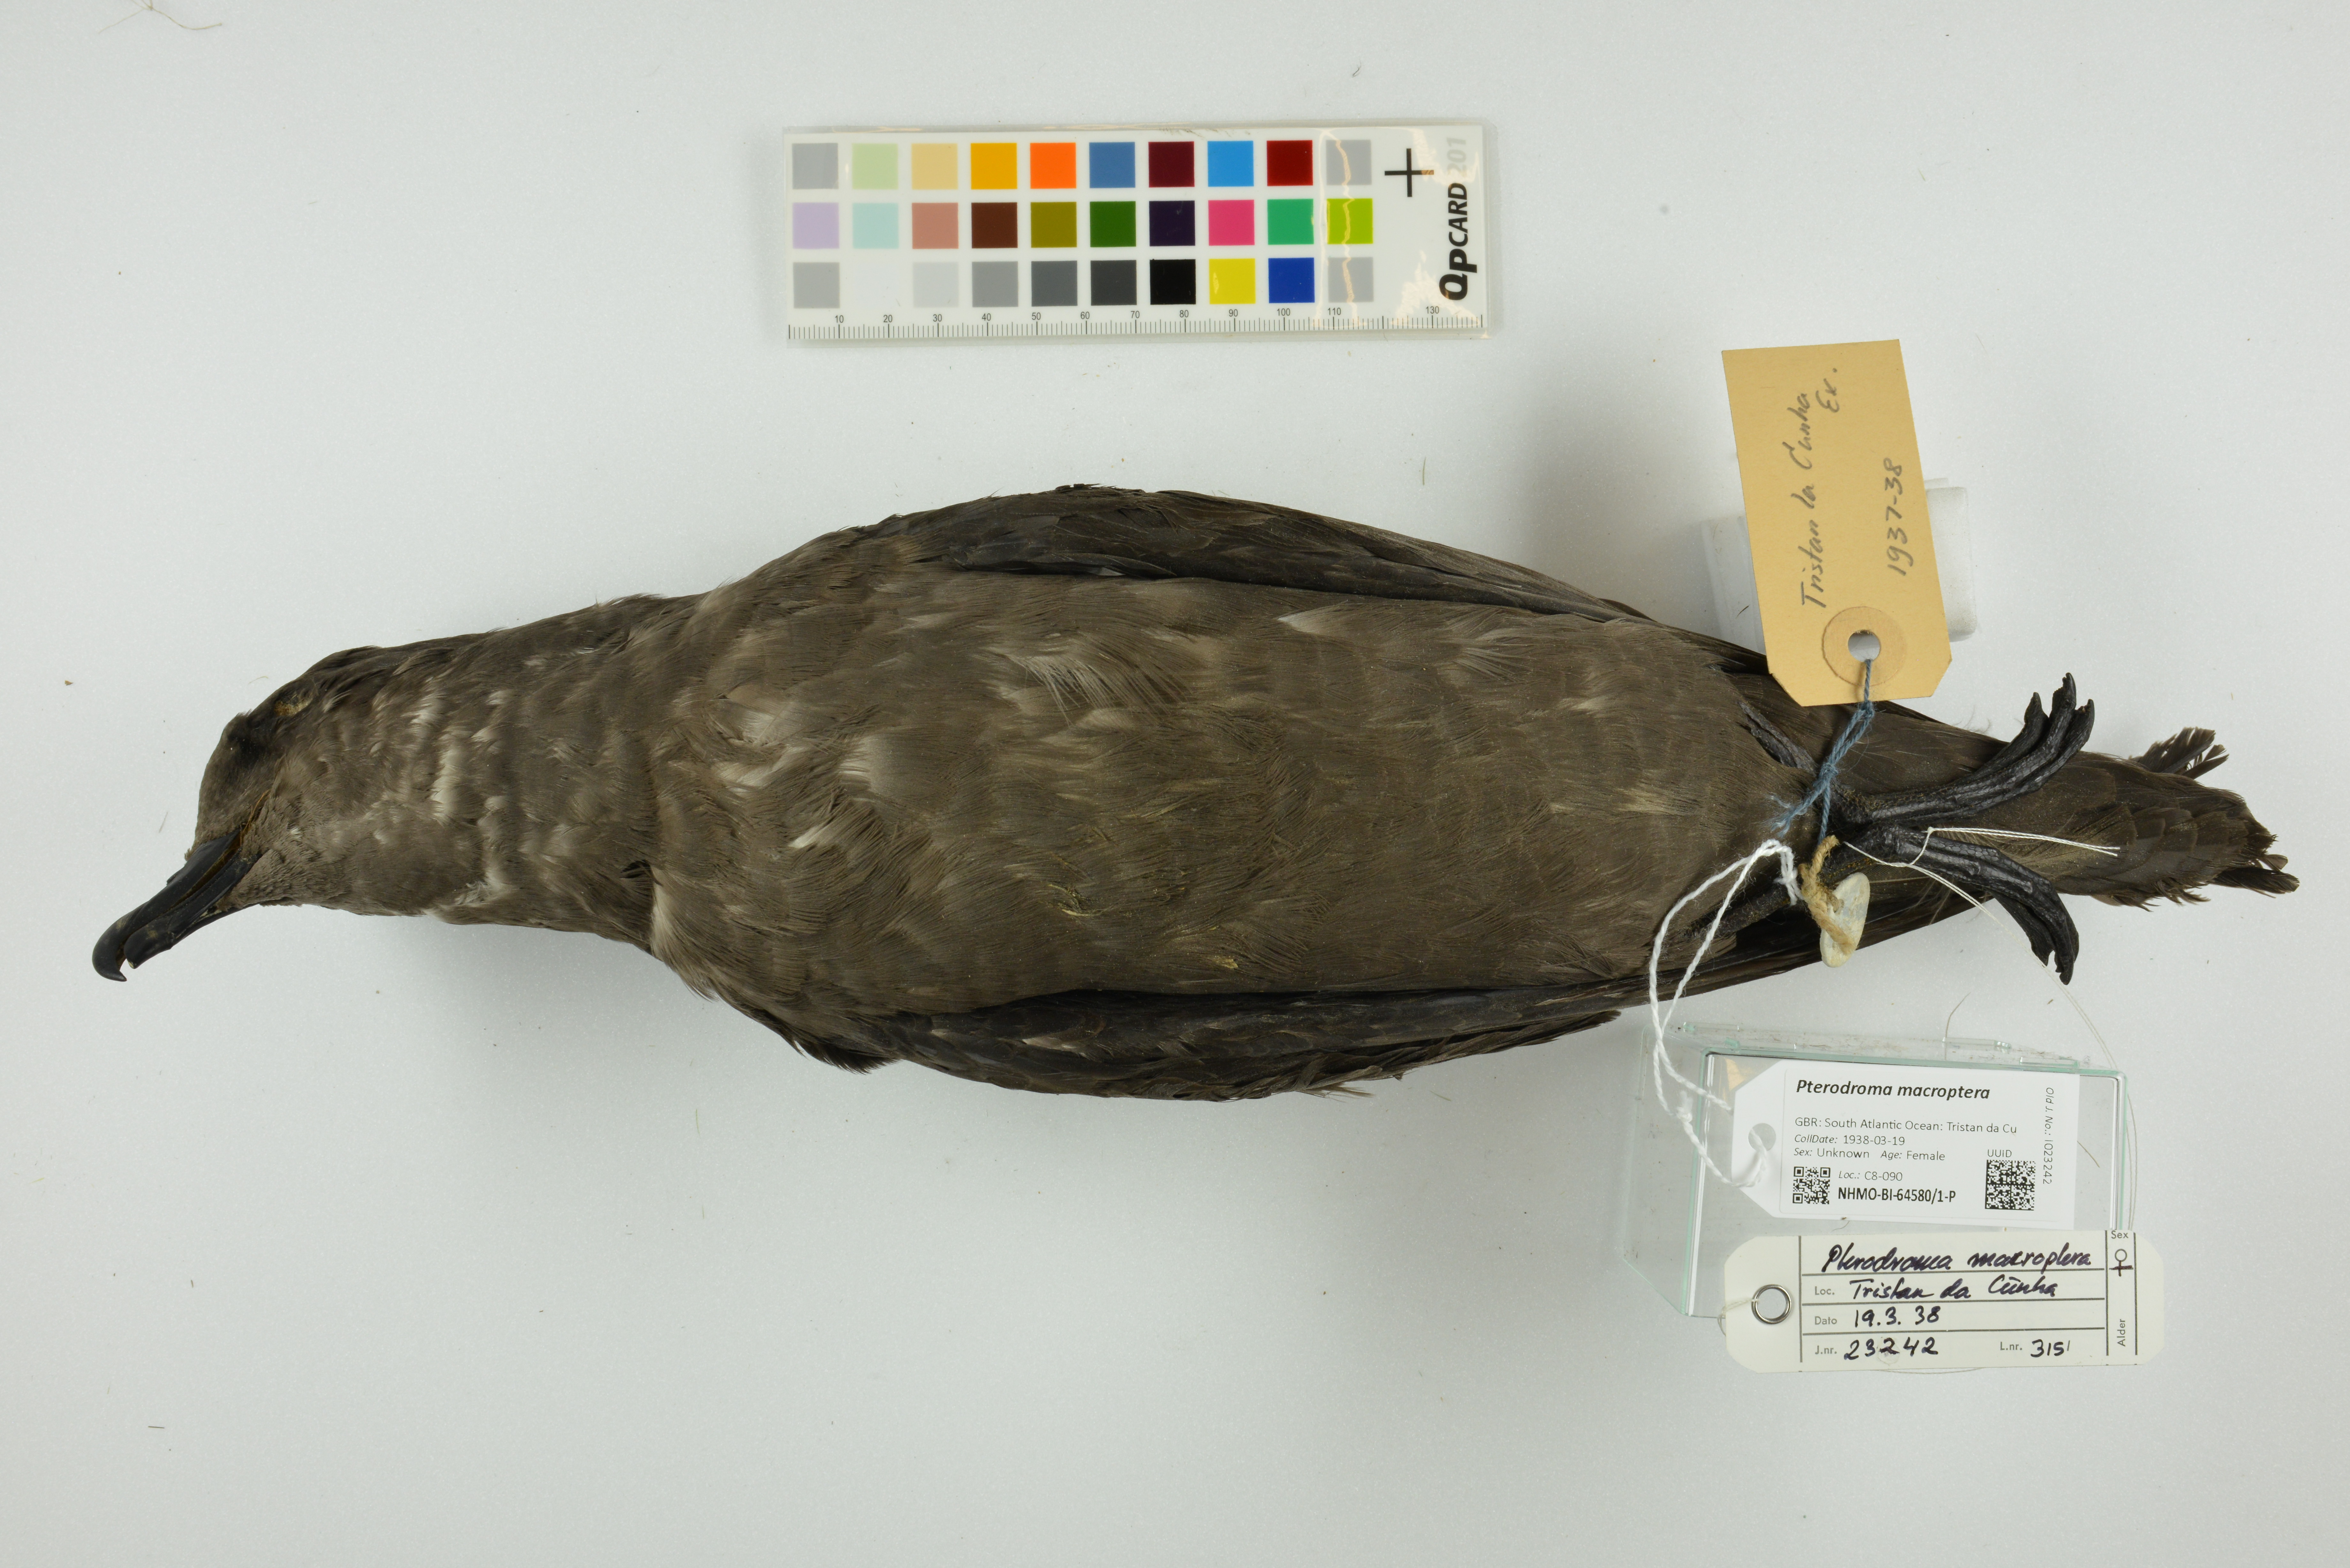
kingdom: Animalia
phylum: Chordata
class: Aves
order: Procellariiformes
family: Procellariidae
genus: Pterodroma
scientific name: Pterodroma macroptera
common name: Great-winged petrel
